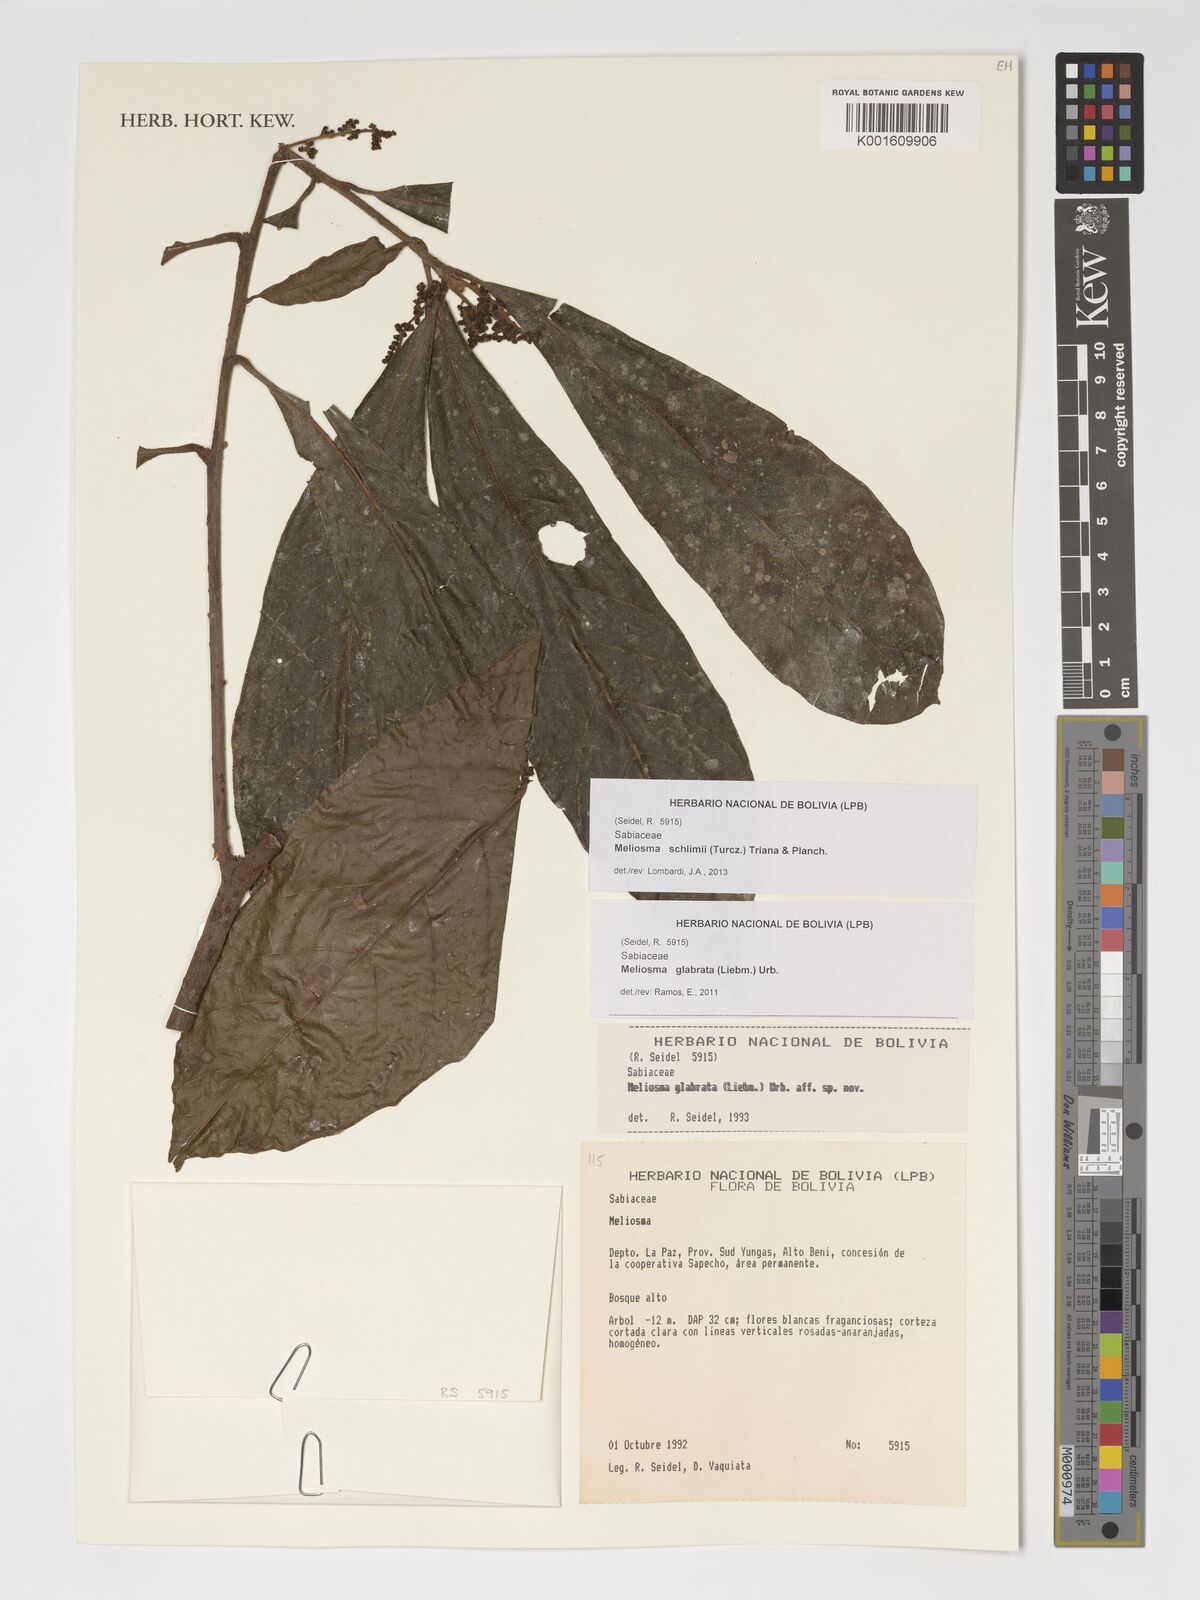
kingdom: Plantae
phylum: Tracheophyta
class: Magnoliopsida
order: Proteales
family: Sabiaceae
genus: Meliosma
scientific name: Meliosma schlimii
